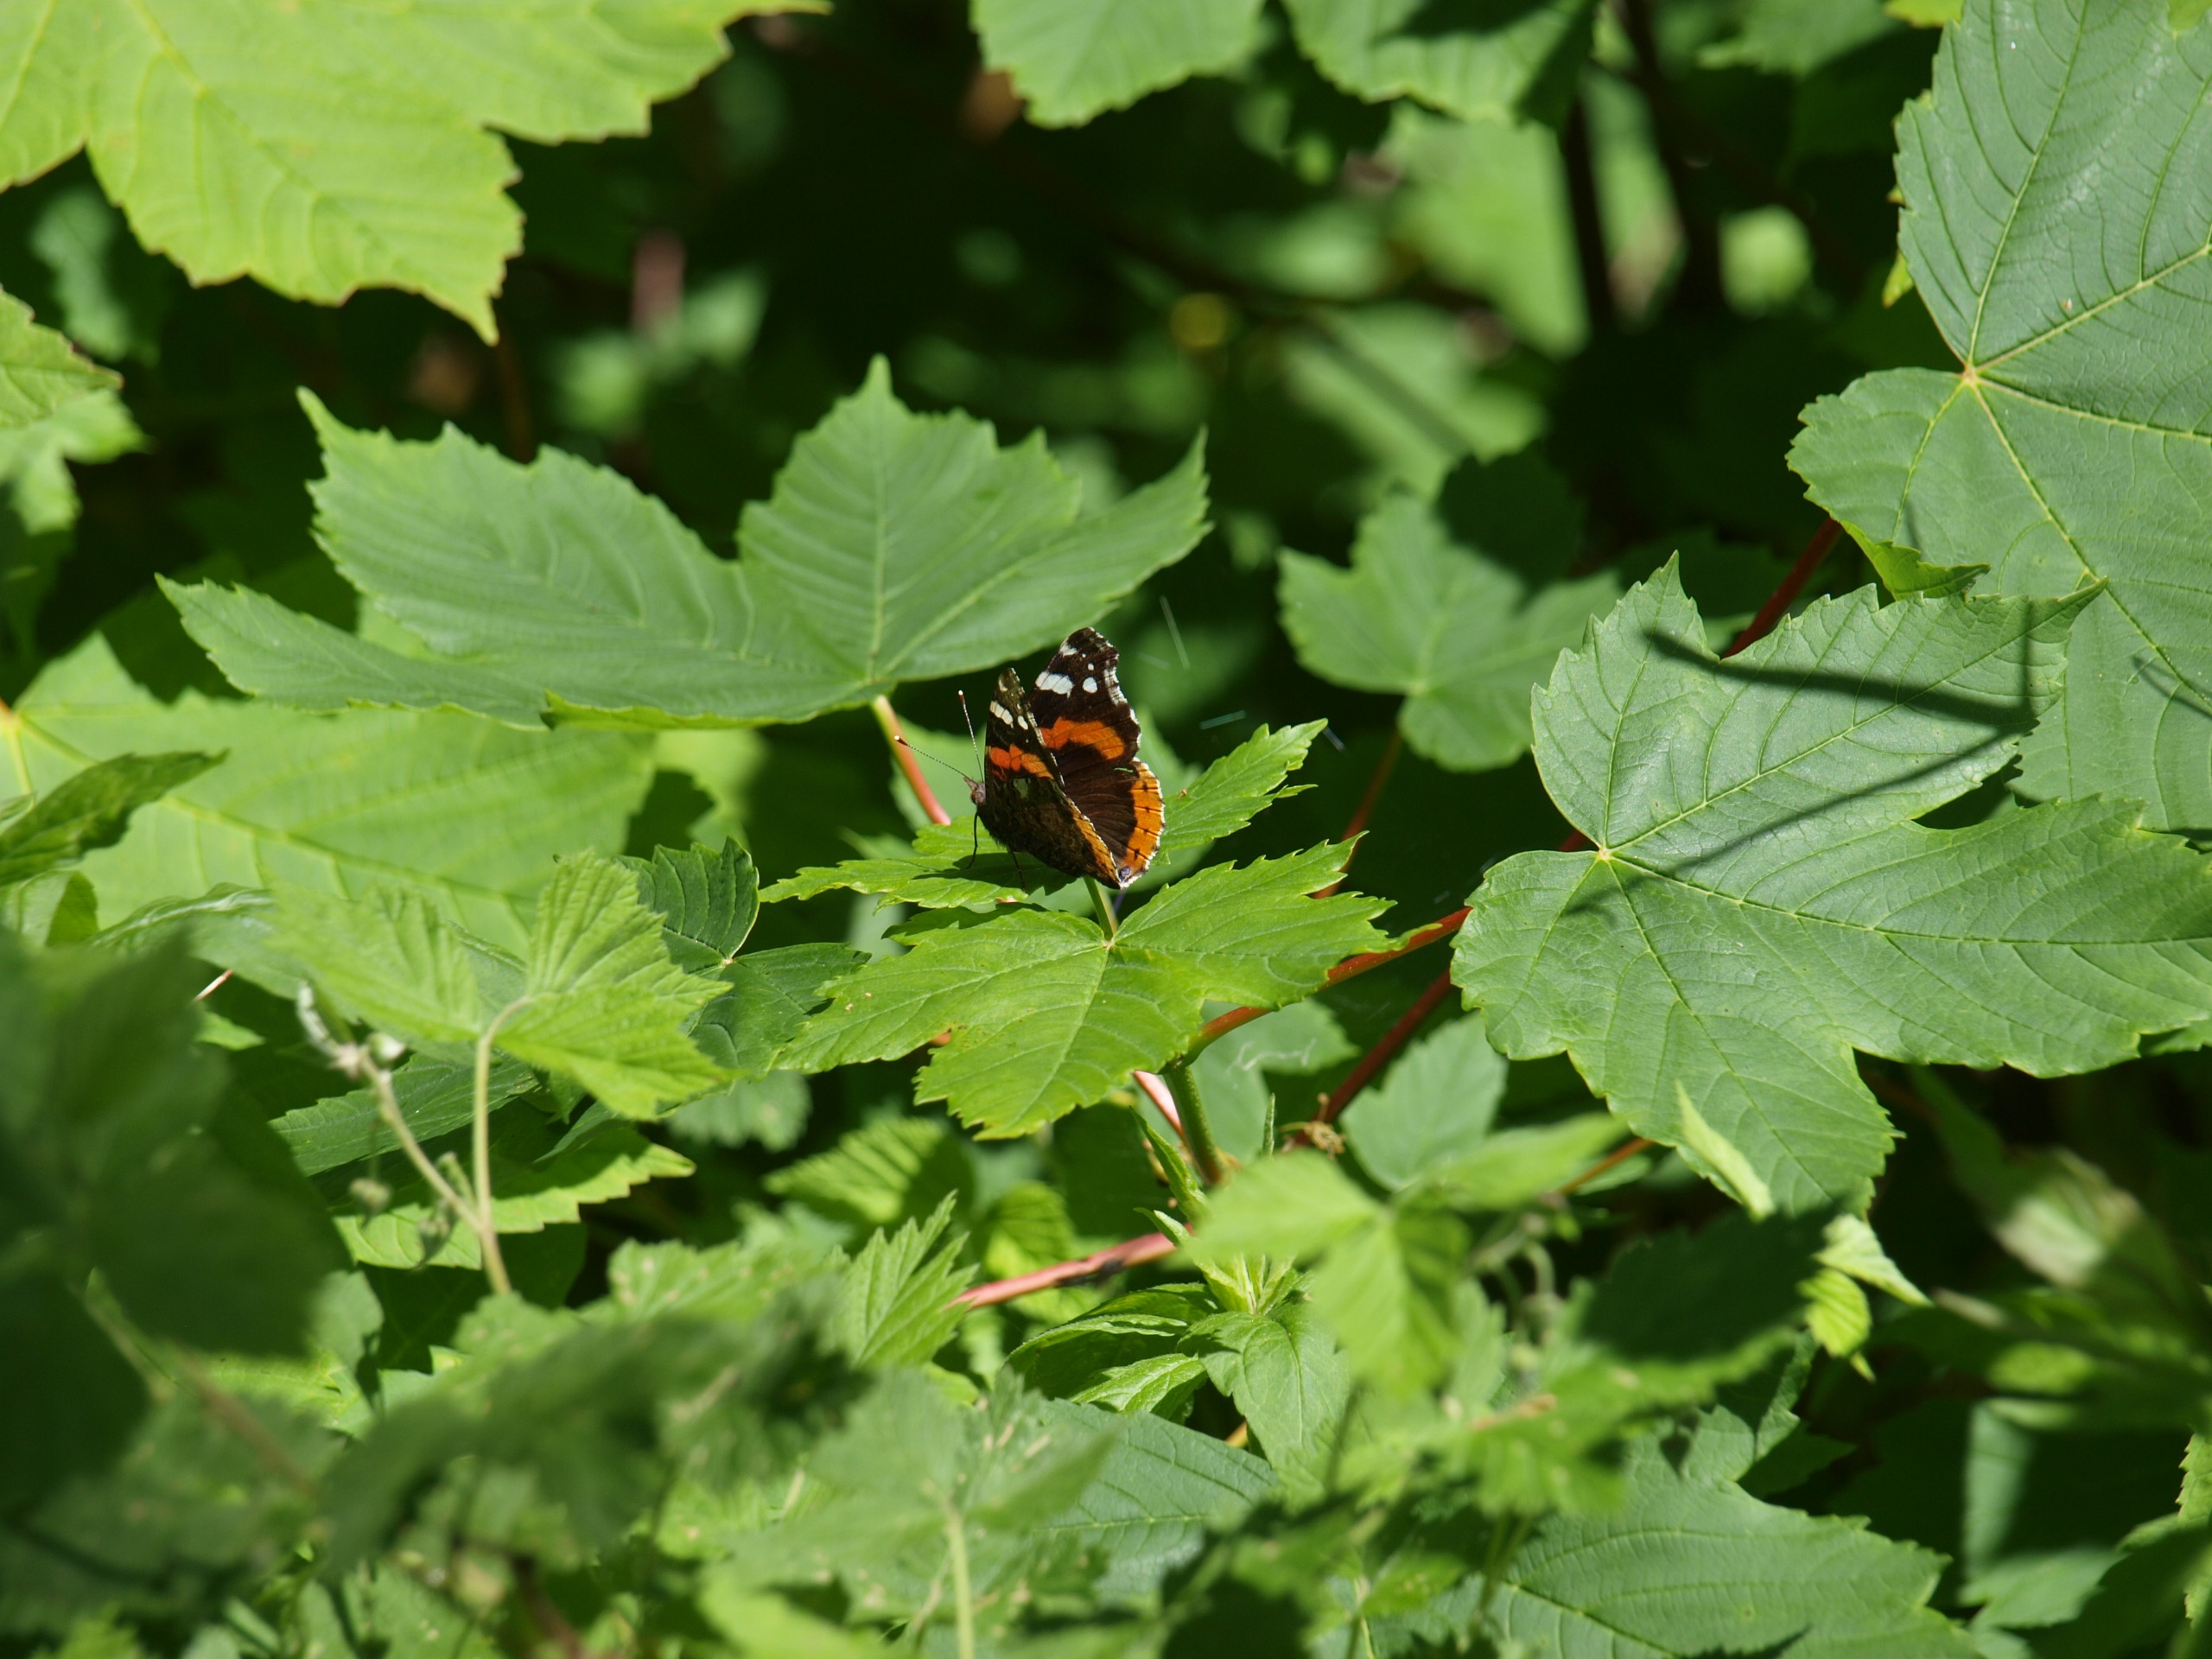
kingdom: Animalia
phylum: Arthropoda
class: Insecta
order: Lepidoptera
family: Nymphalidae
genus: Vanessa
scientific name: Vanessa atalanta
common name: Admiral
